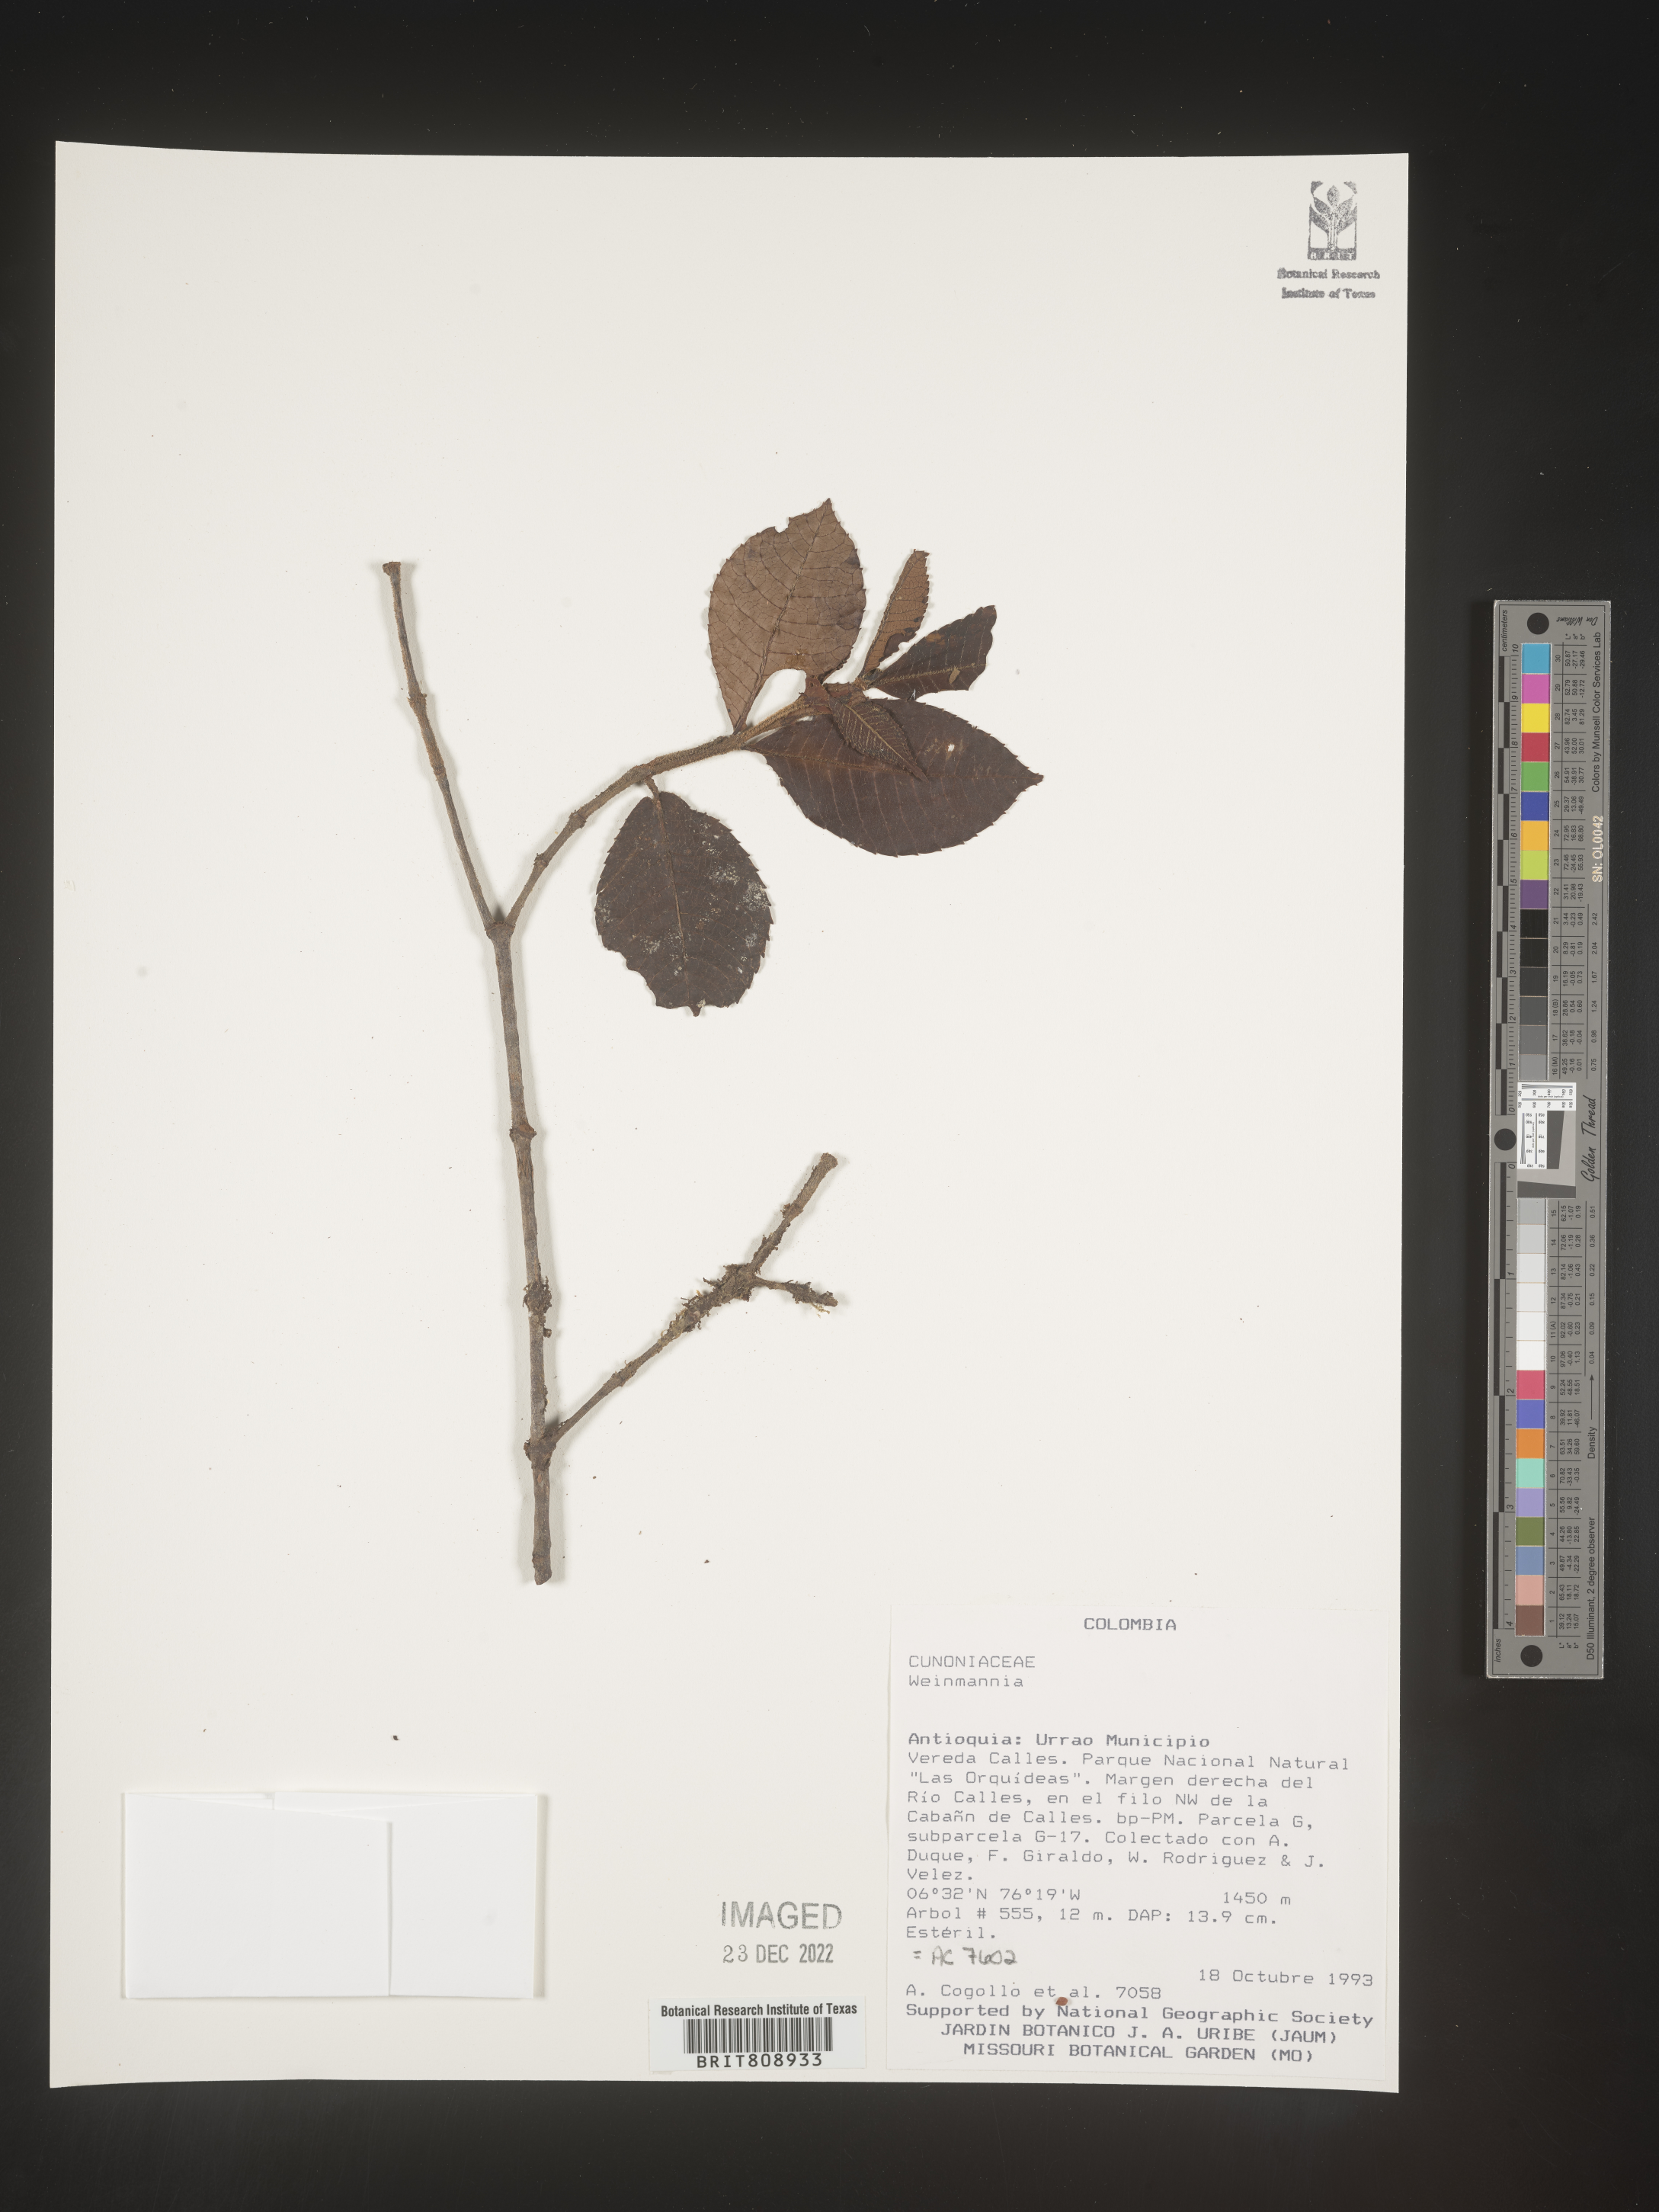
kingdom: Plantae
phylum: Tracheophyta
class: Magnoliopsida
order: Oxalidales
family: Cunoniaceae
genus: Weinmannia
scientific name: Weinmannia
